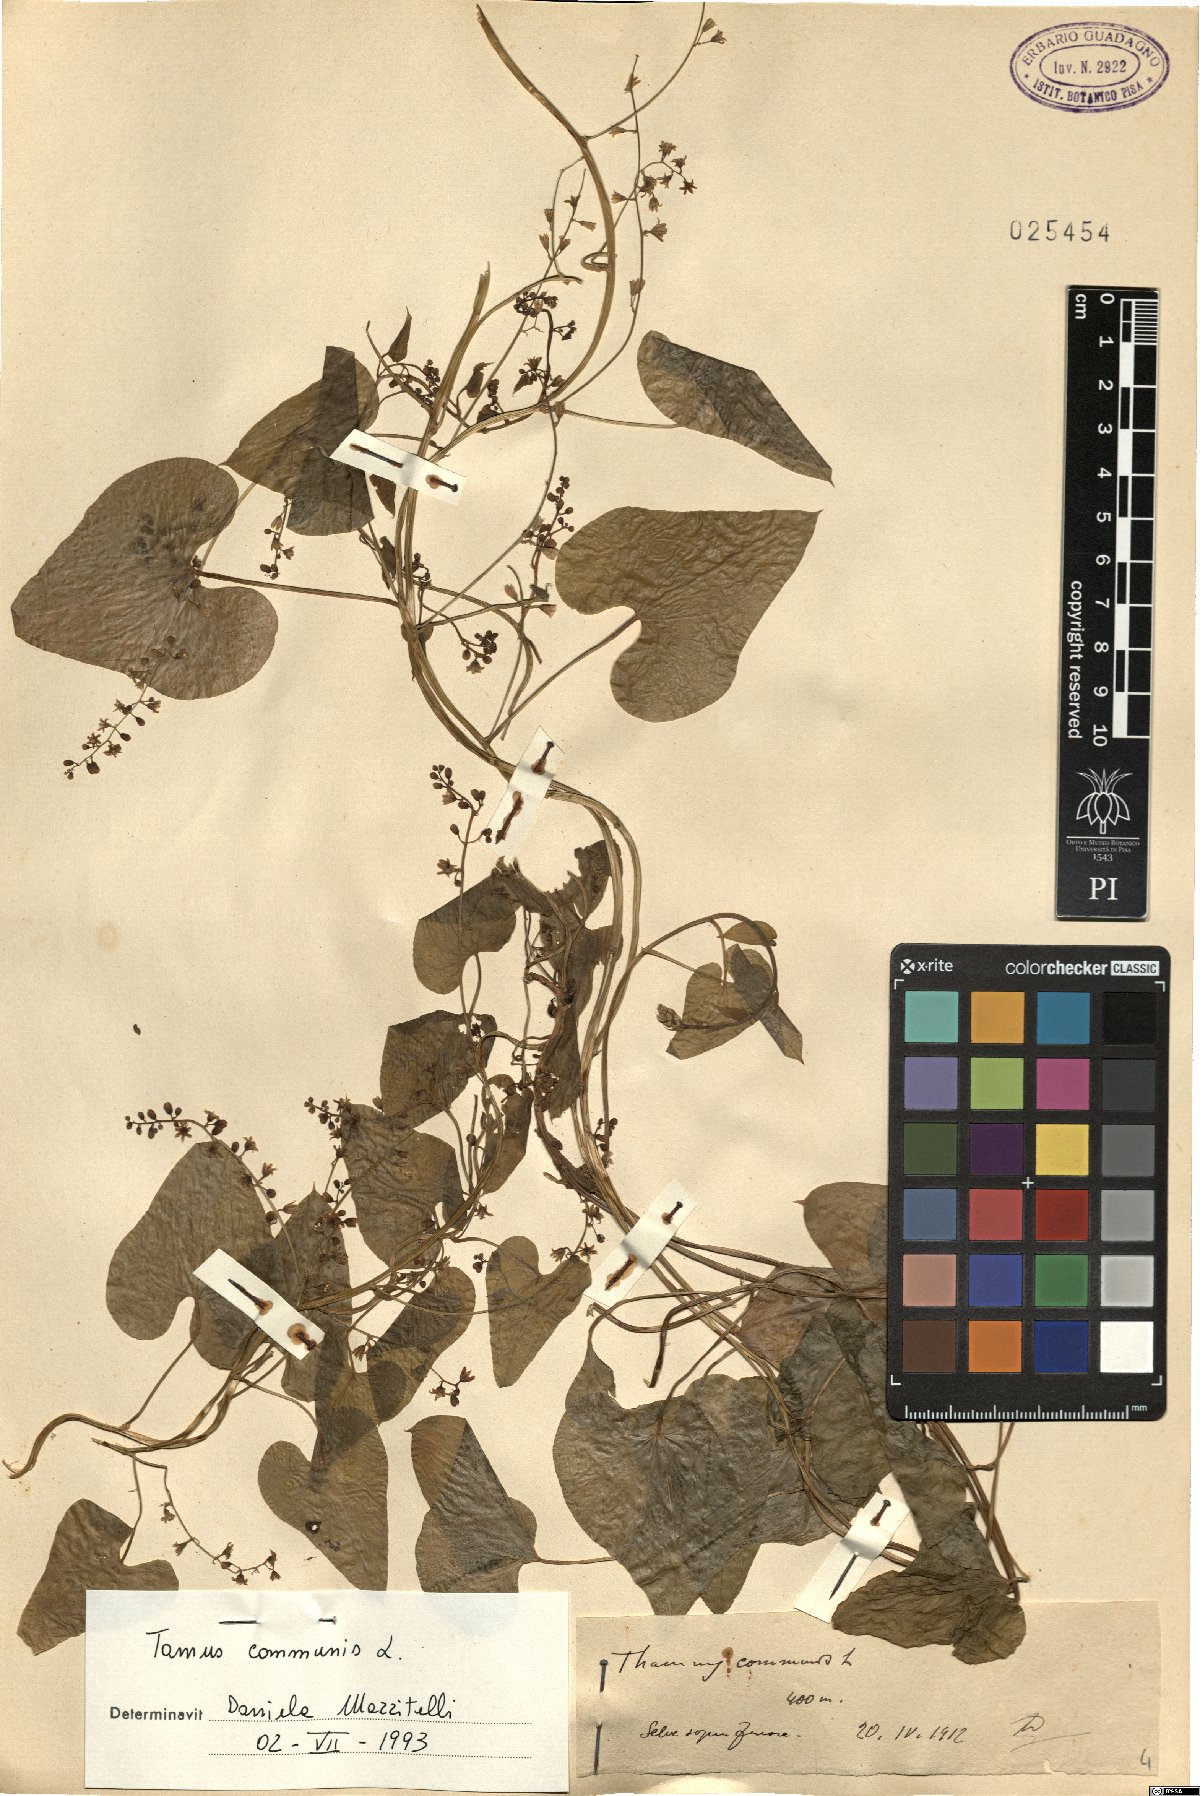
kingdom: Plantae
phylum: Tracheophyta
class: Liliopsida
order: Dioscoreales
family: Dioscoreaceae
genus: Dioscorea
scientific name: Dioscorea communis
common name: Black-bindweed
